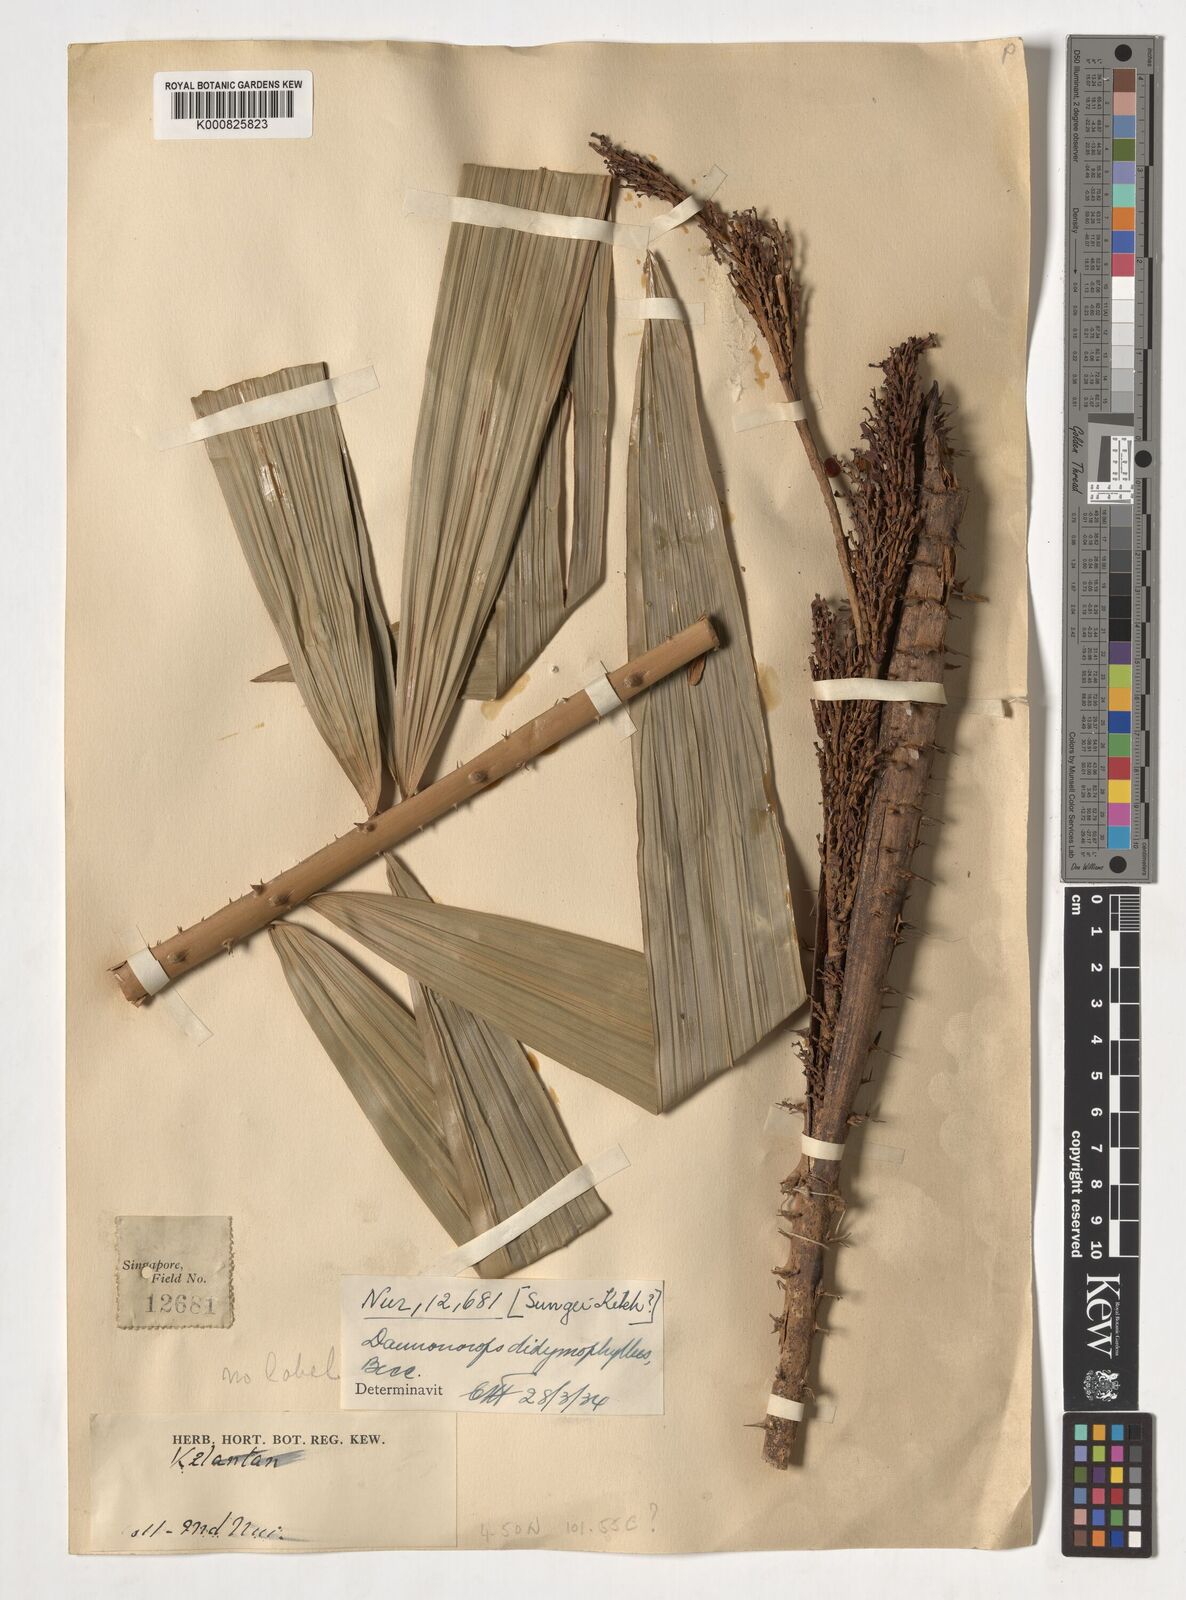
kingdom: Plantae
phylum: Tracheophyta
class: Liliopsida
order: Arecales
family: Arecaceae
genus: Calamus
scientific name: Calamus gracilipes
